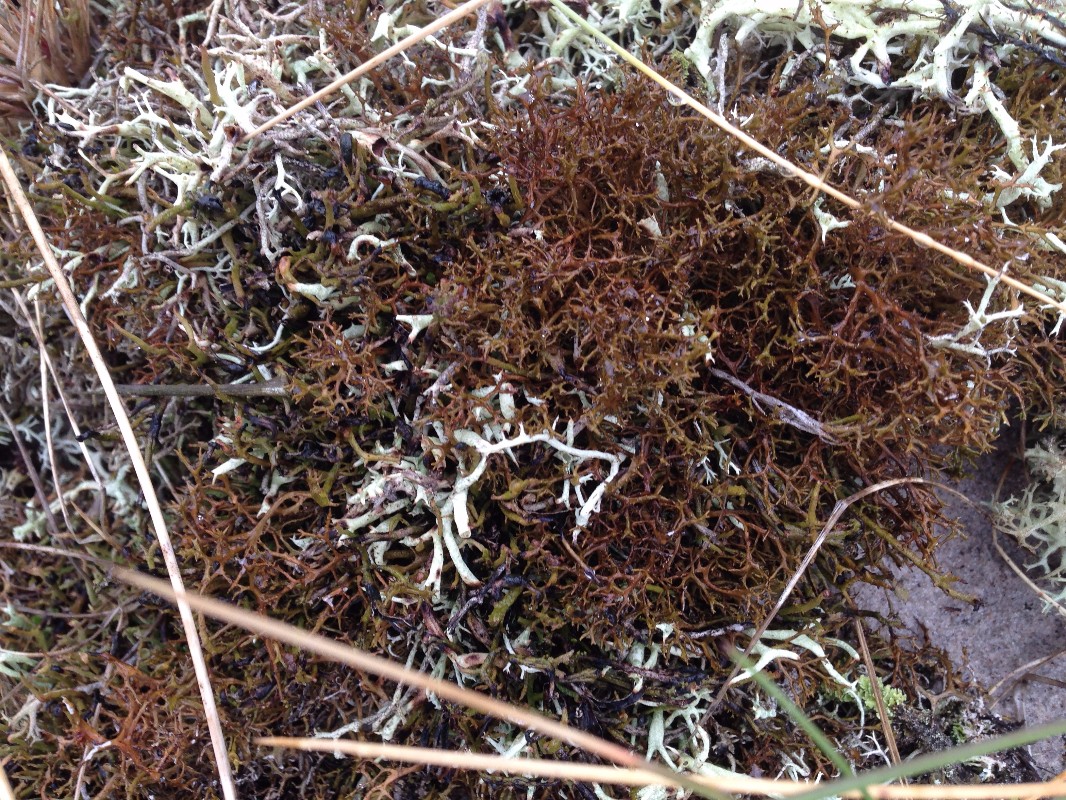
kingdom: Fungi
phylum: Ascomycota
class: Lecanoromycetes
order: Lecanorales
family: Parmeliaceae
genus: Cetraria
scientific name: Cetraria aculeata
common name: grubet tjørnelav
